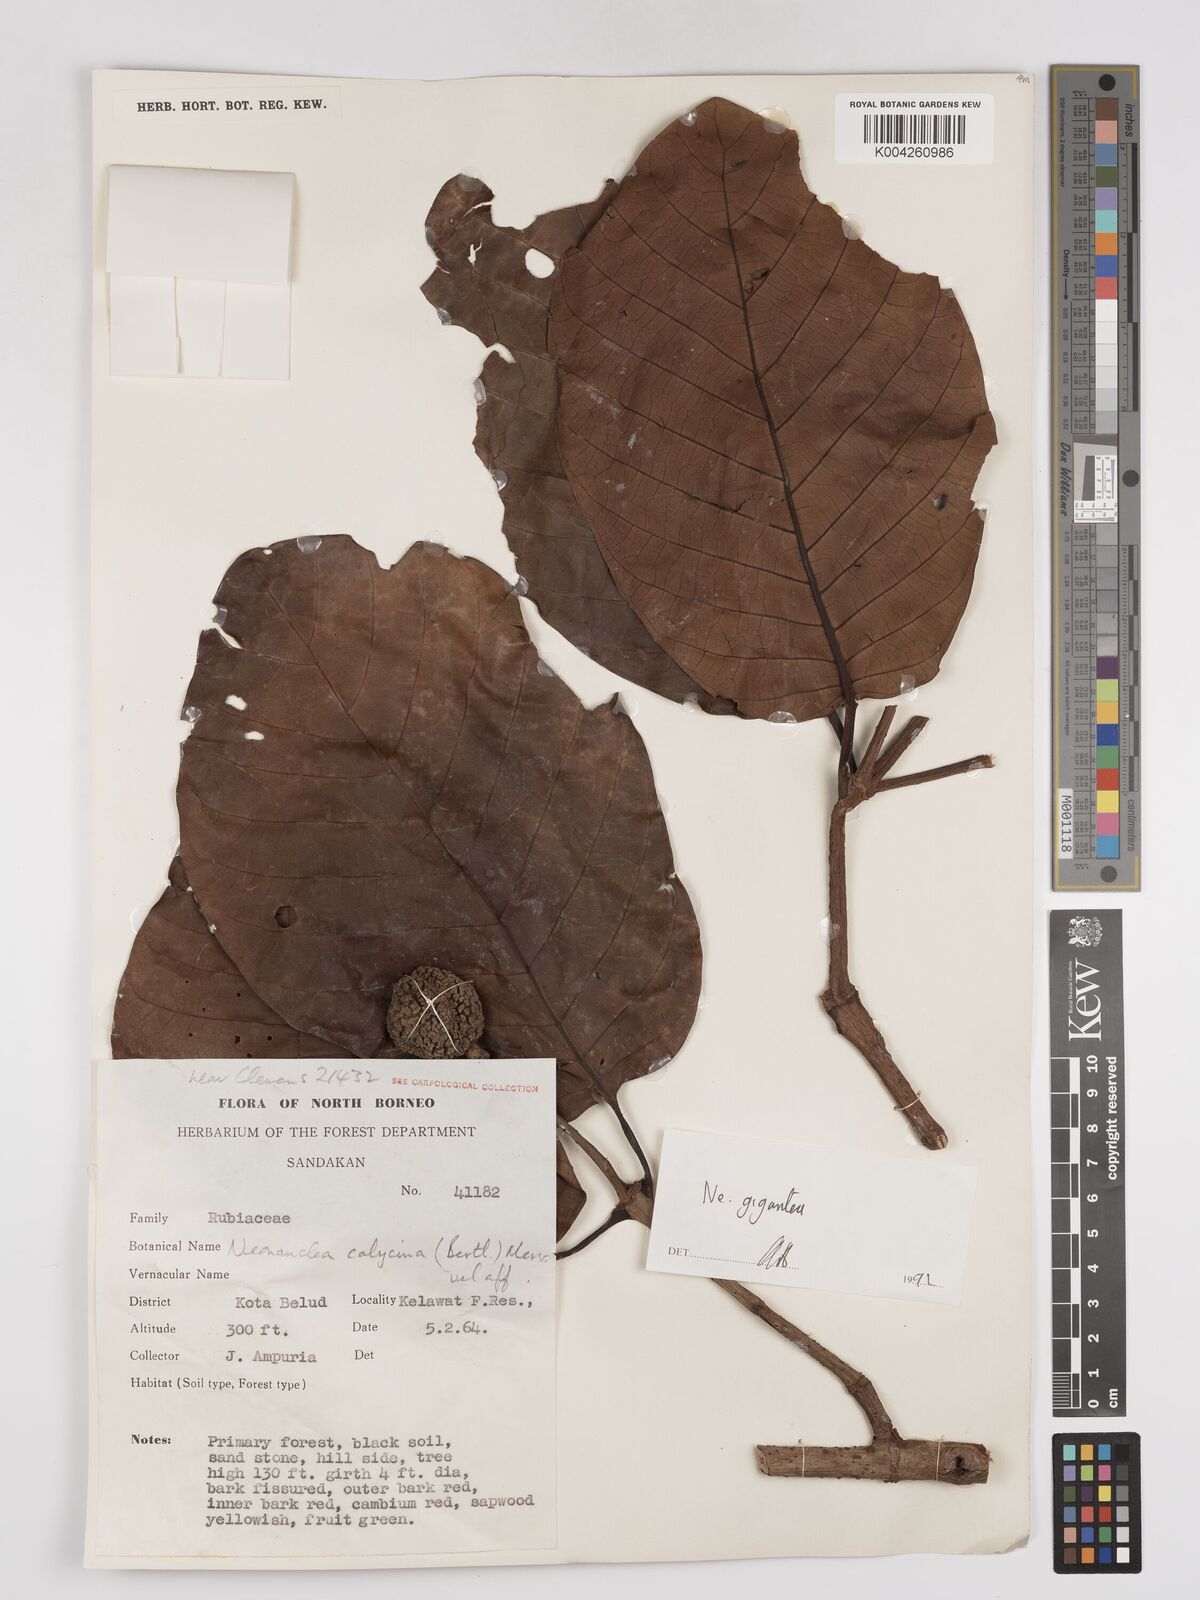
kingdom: Plantae
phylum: Tracheophyta
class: Magnoliopsida
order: Gentianales
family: Rubiaceae
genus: Neonauclea
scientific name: Neonauclea gigantea
